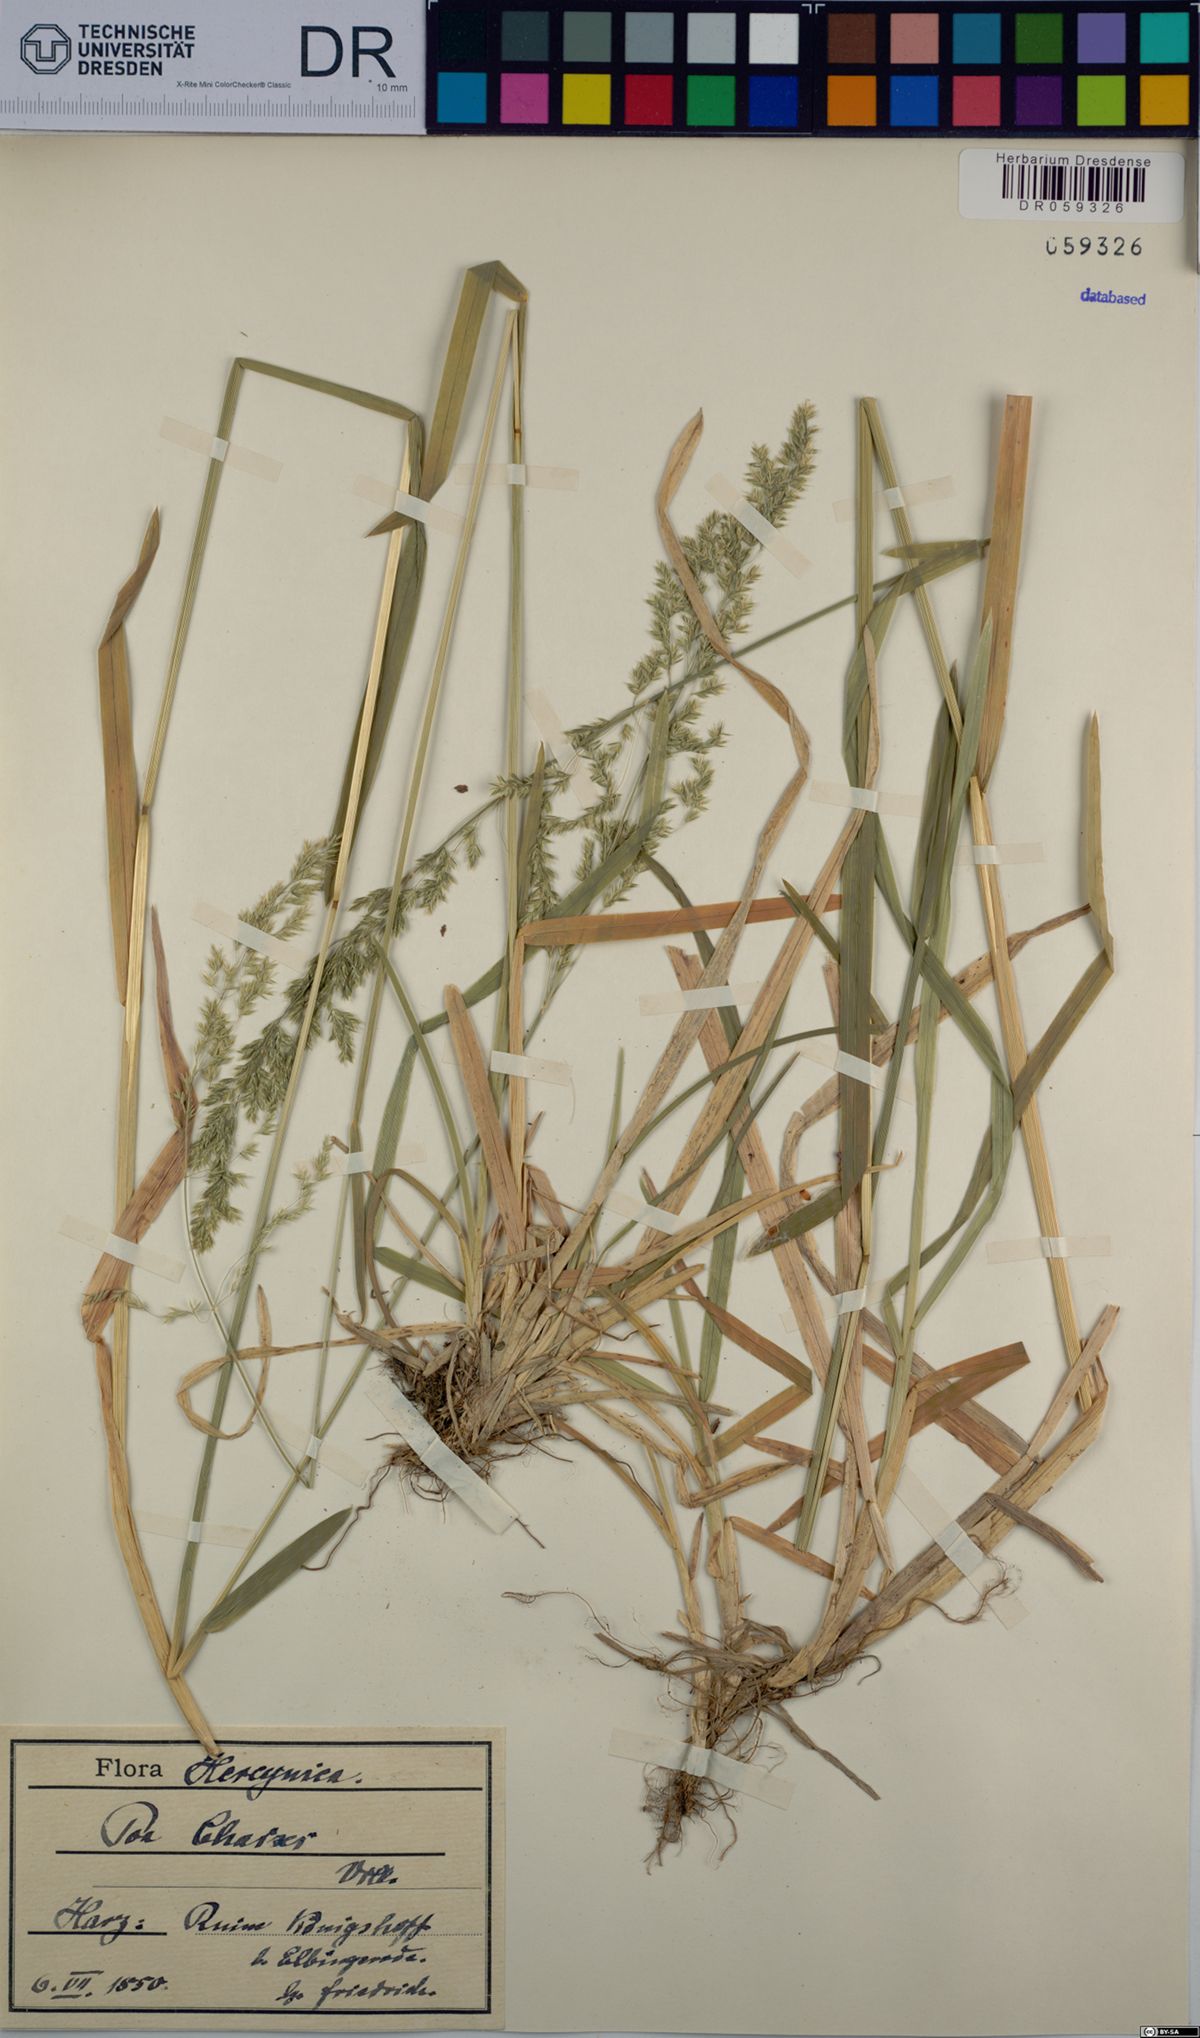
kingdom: Plantae
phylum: Tracheophyta
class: Liliopsida
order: Poales
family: Poaceae
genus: Poa
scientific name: Poa chaixii
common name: Broad-leaved meadow-grass
